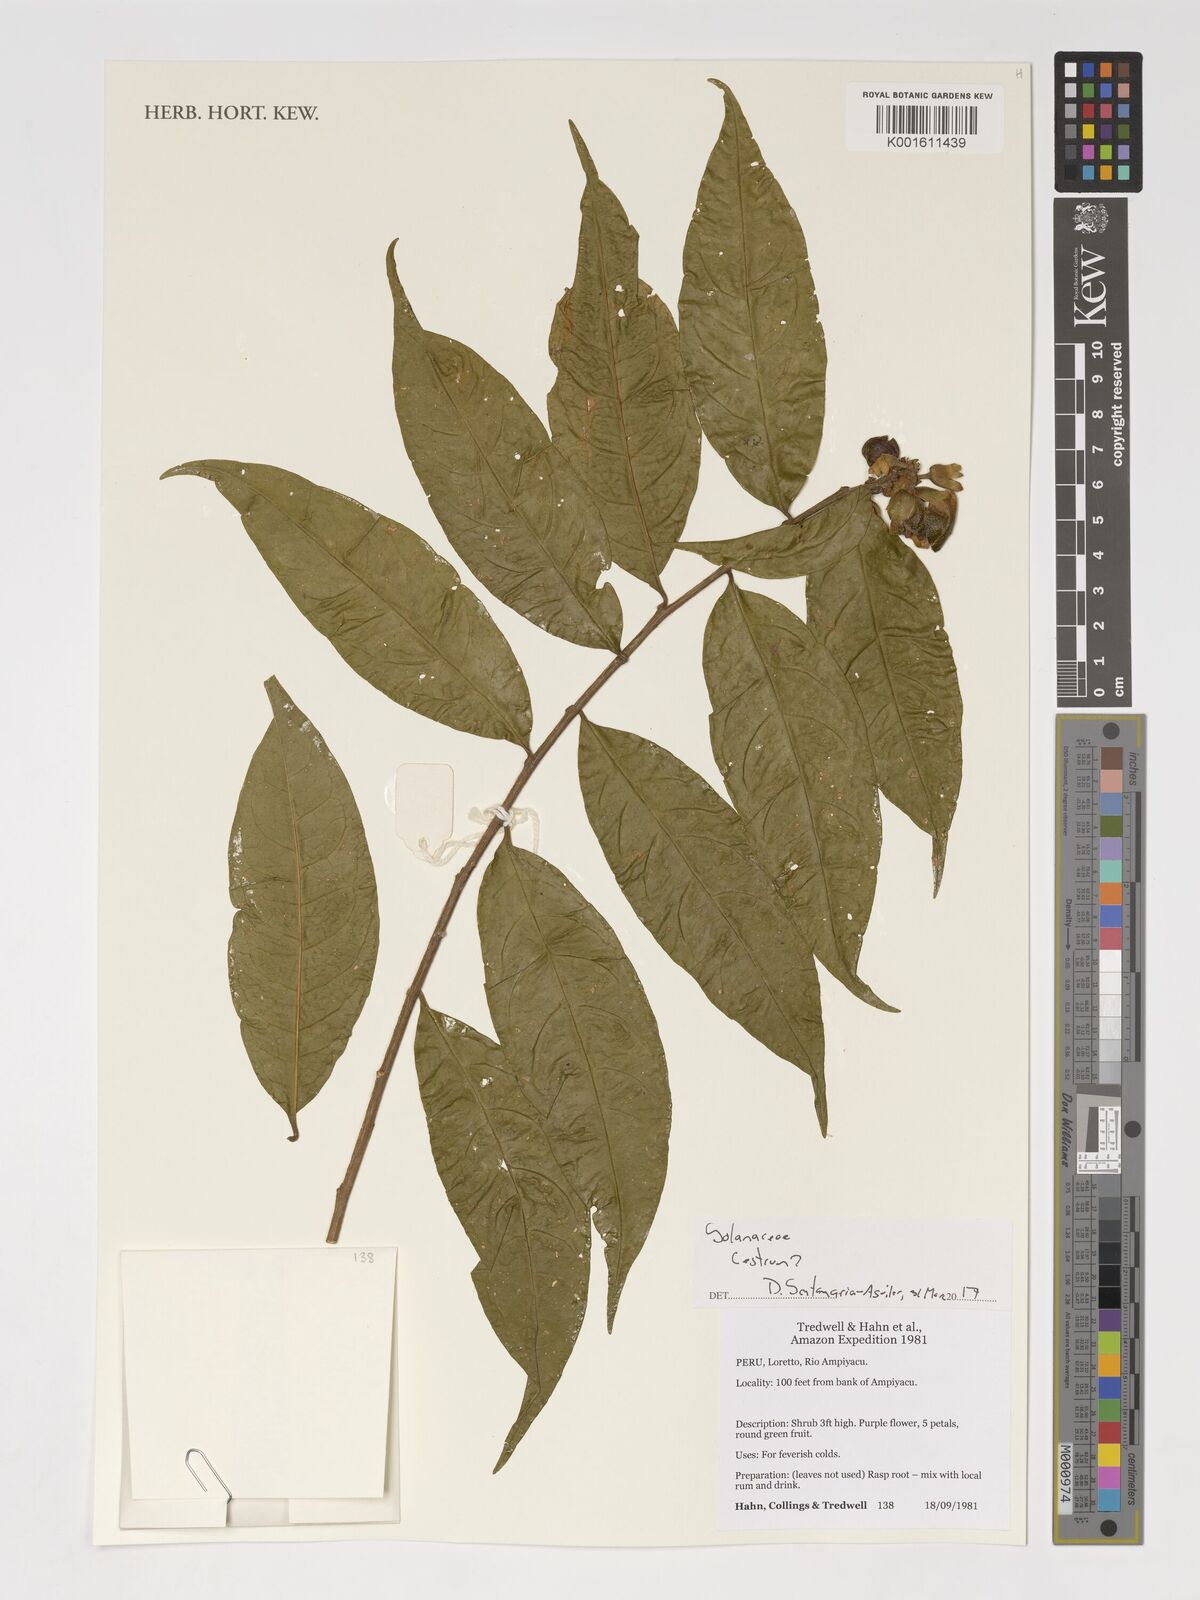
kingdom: Plantae
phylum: Tracheophyta
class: Magnoliopsida
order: Solanales
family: Solanaceae
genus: Cestrum
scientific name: Cestrum
